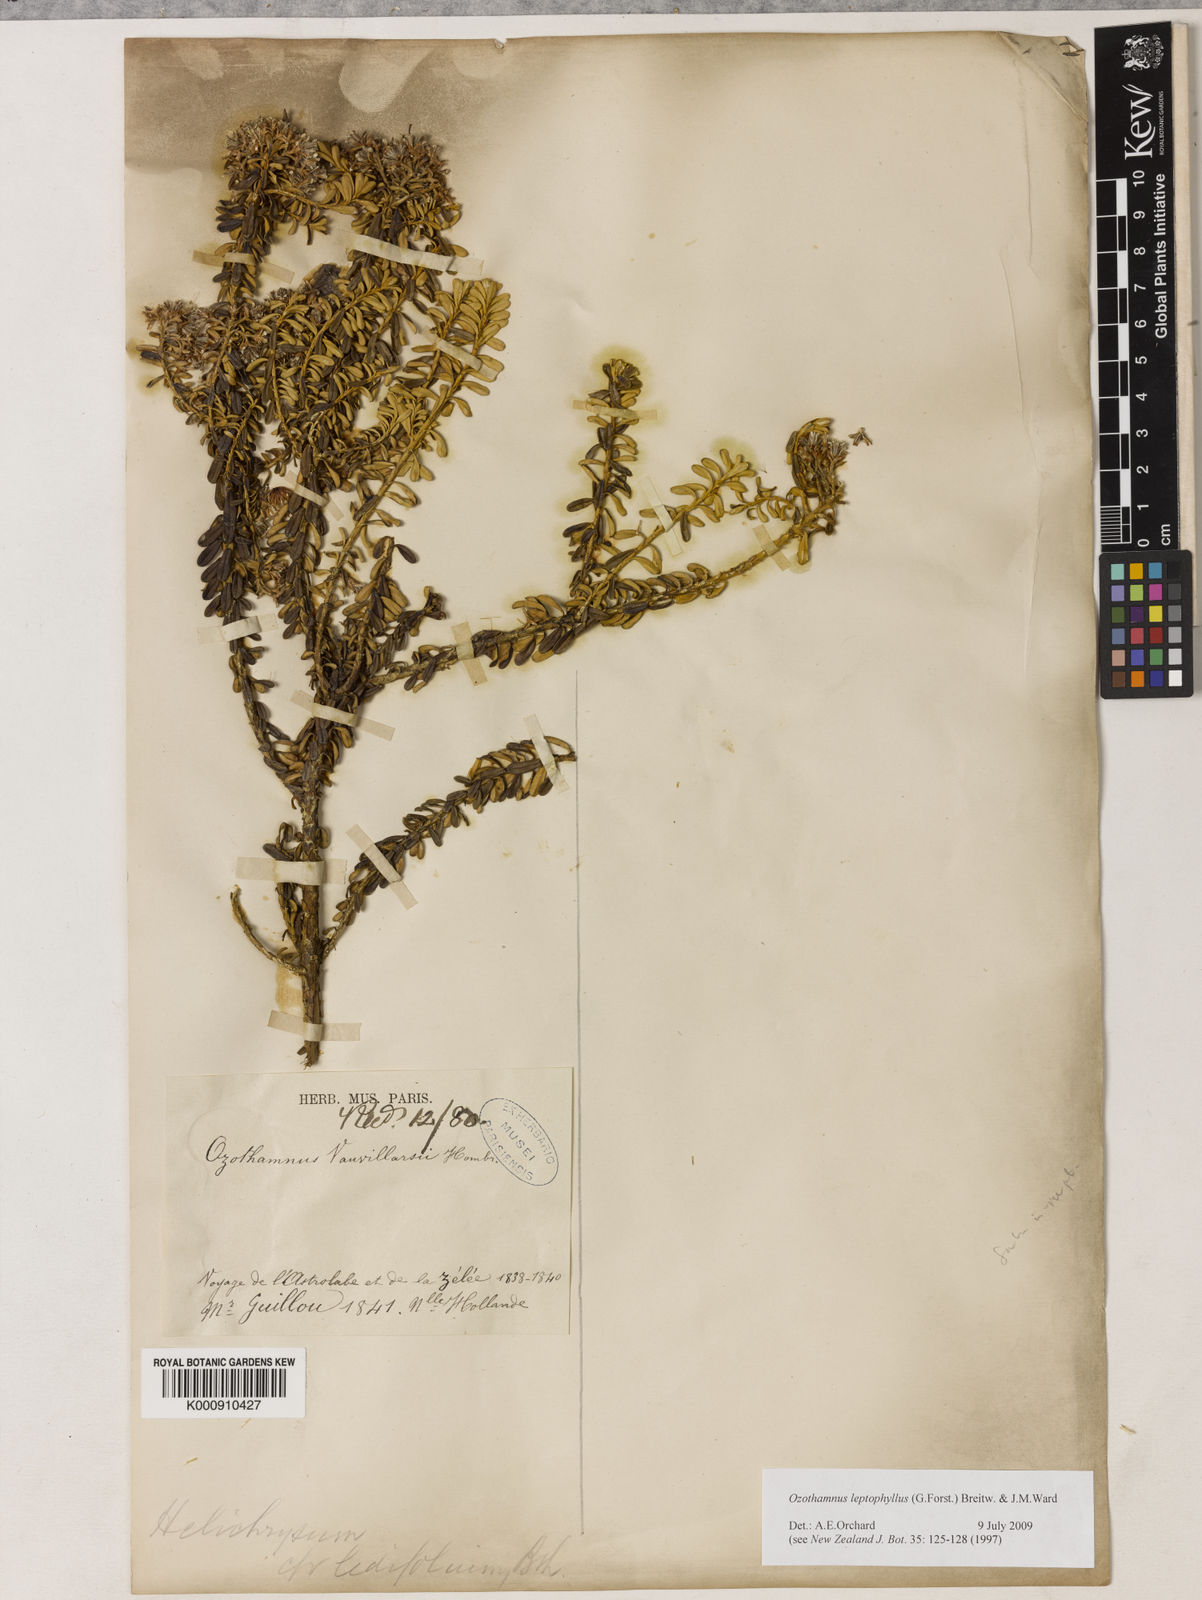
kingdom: Plantae
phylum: Tracheophyta
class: Magnoliopsida
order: Asterales
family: Asteraceae
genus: Ozothamnus
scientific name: Ozothamnus leptophyllus
